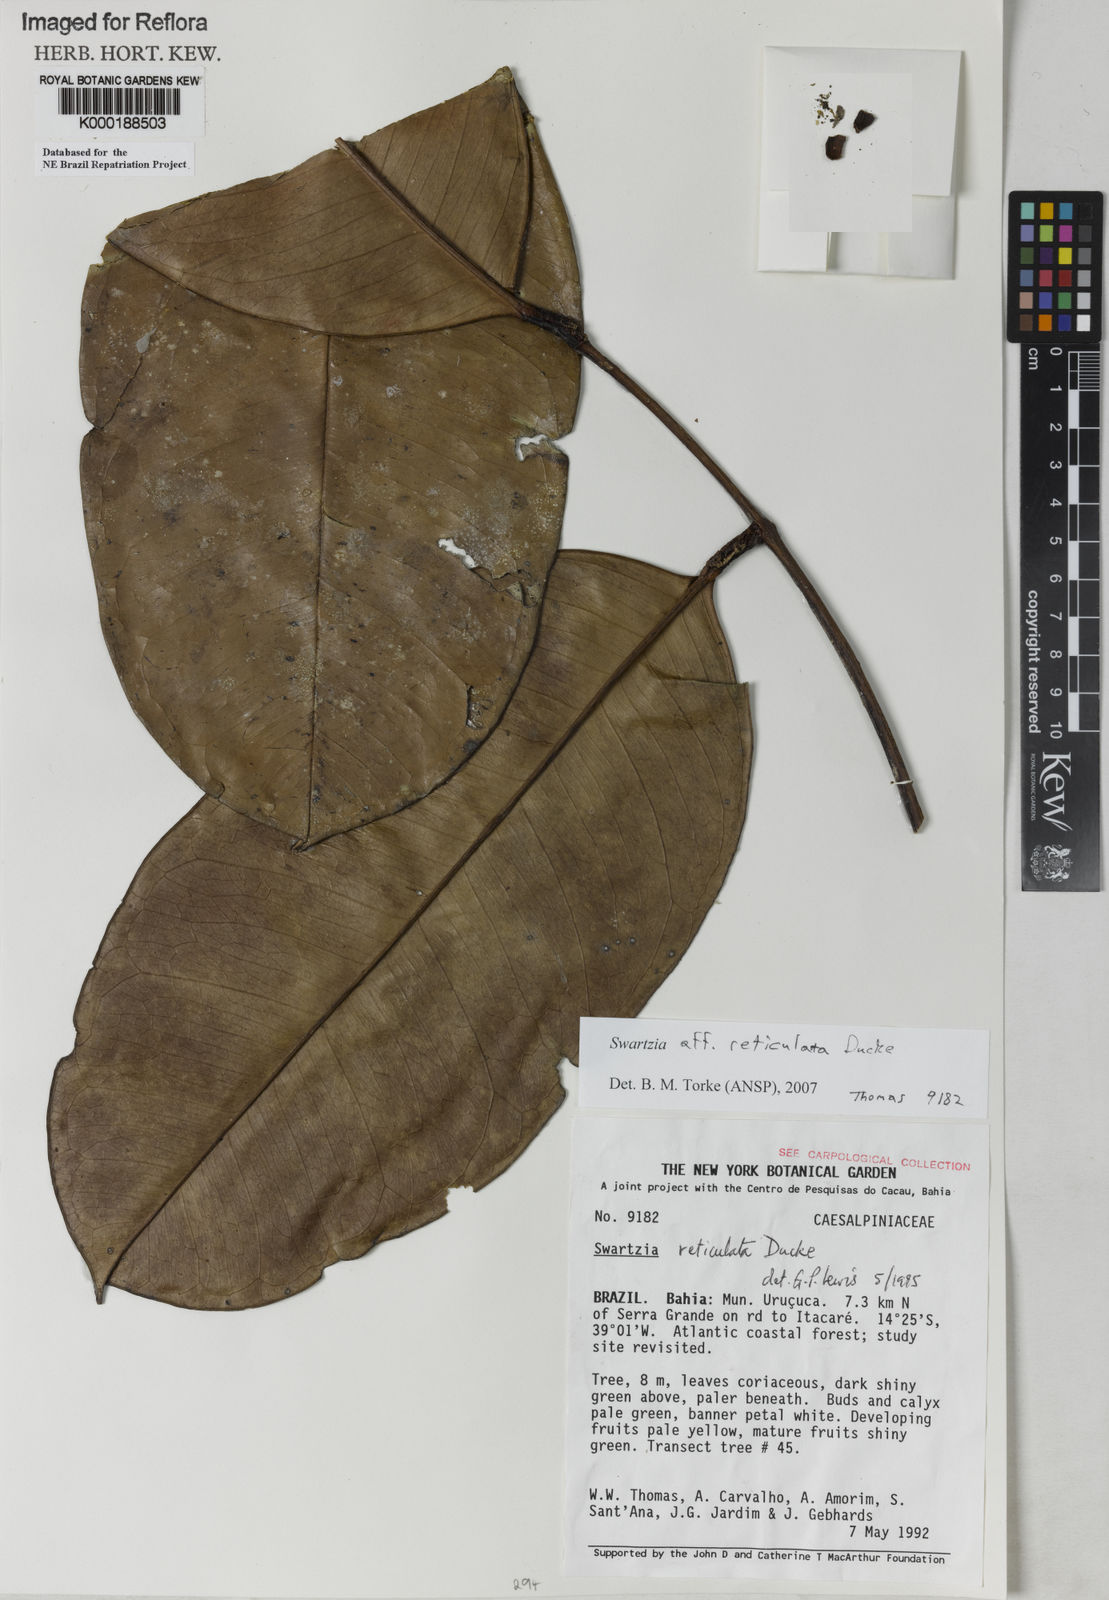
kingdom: Plantae
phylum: Tracheophyta
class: Magnoliopsida
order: Fabales
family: Fabaceae
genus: Swartzia
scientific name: Swartzia reticulata
